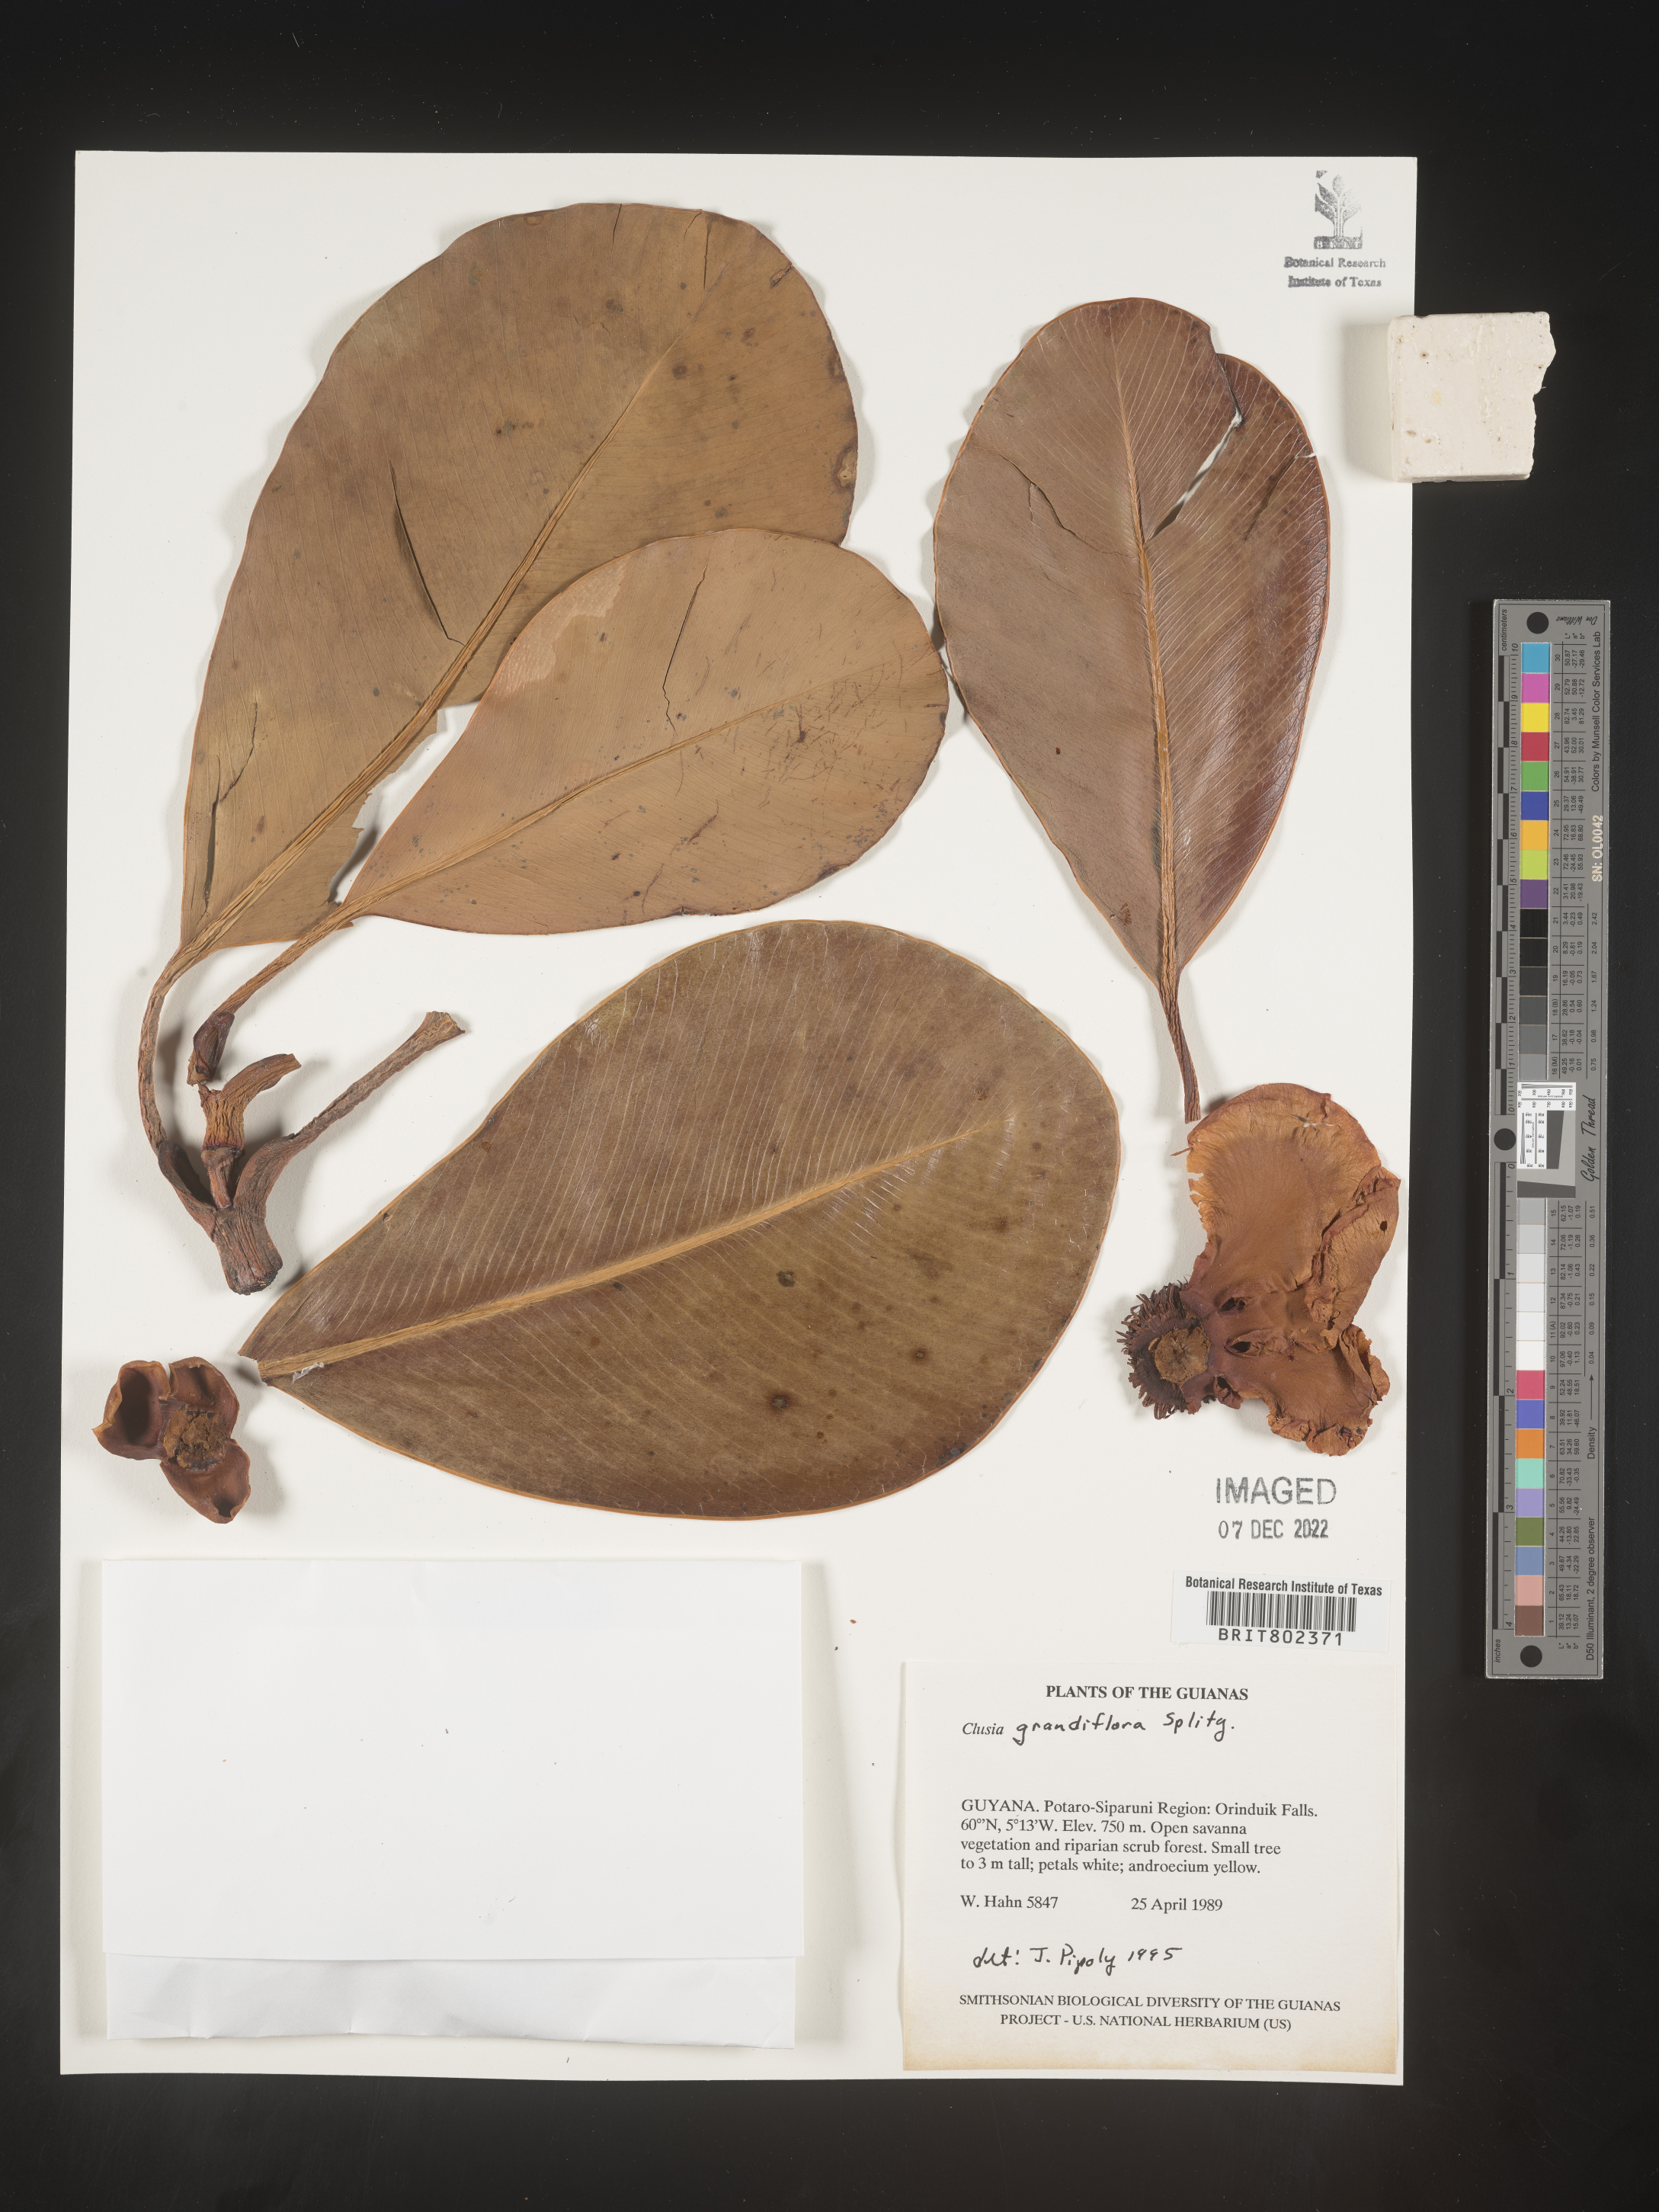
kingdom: Plantae
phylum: Tracheophyta
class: Magnoliopsida
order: Malpighiales
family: Clusiaceae
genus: Clusia
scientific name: Clusia grandiflora
